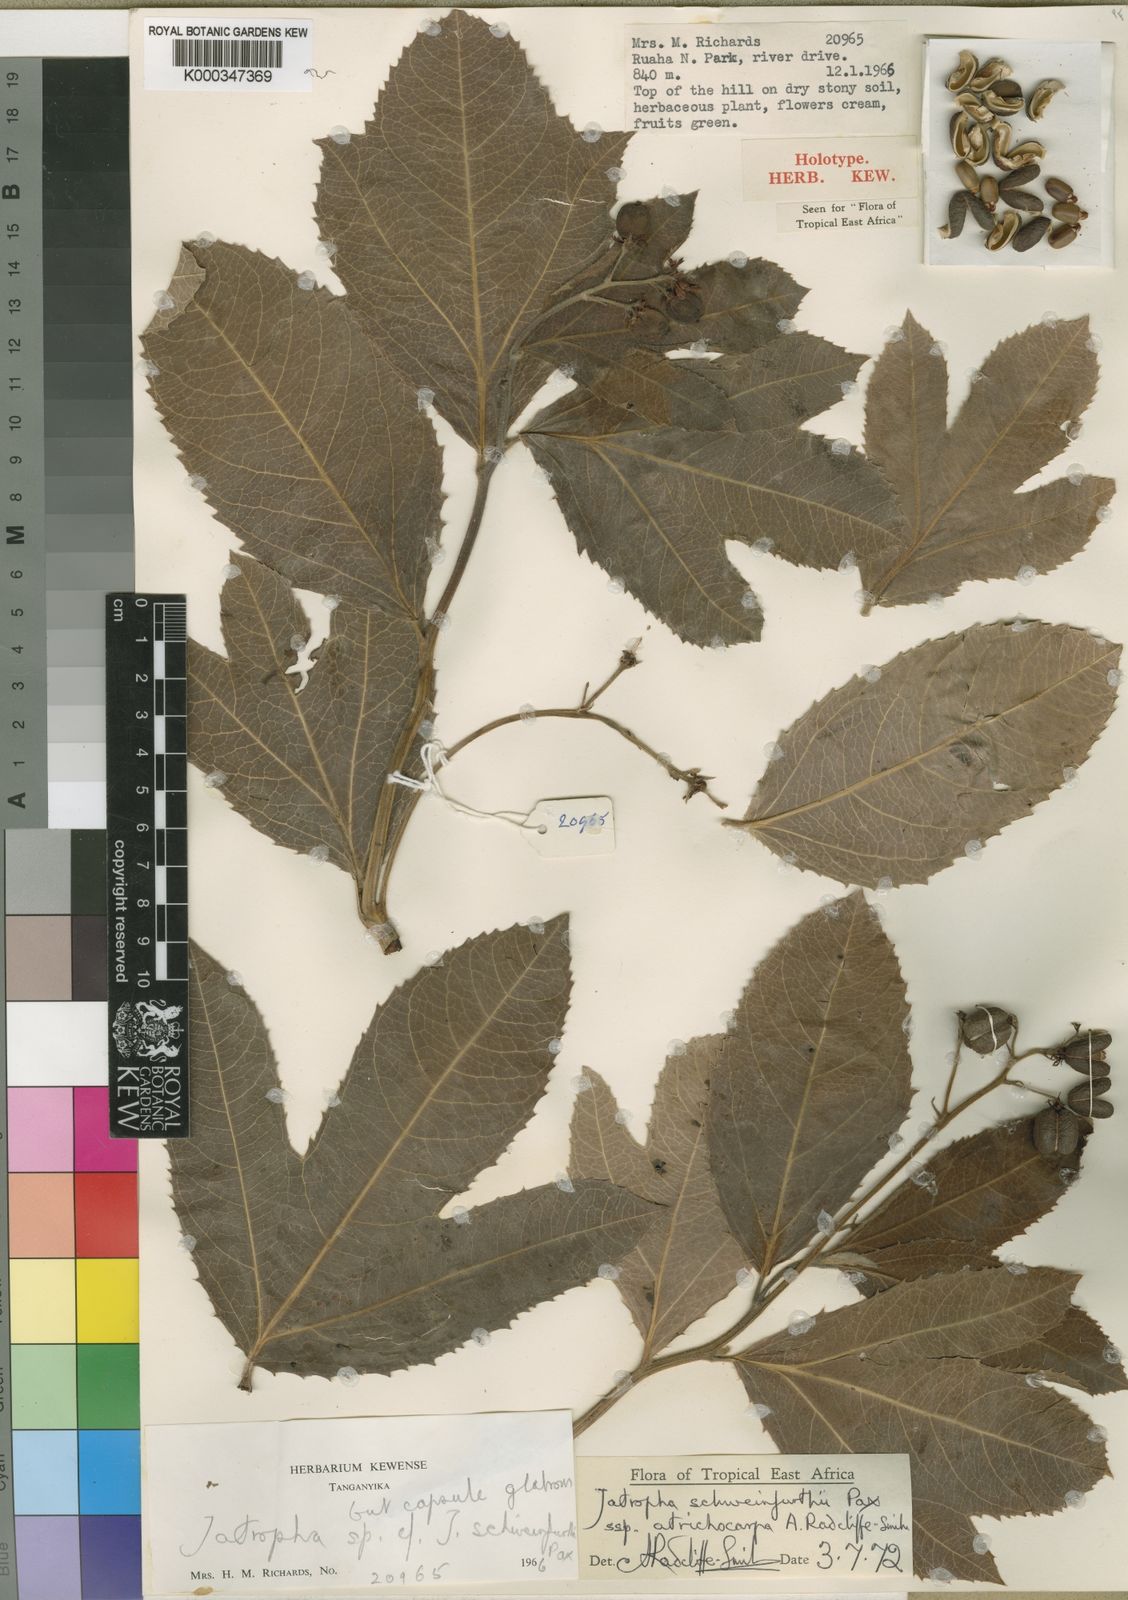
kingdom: Plantae
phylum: Tracheophyta
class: Magnoliopsida
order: Malpighiales
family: Euphorbiaceae
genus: Jatropha
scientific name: Jatropha schweinfurthii
